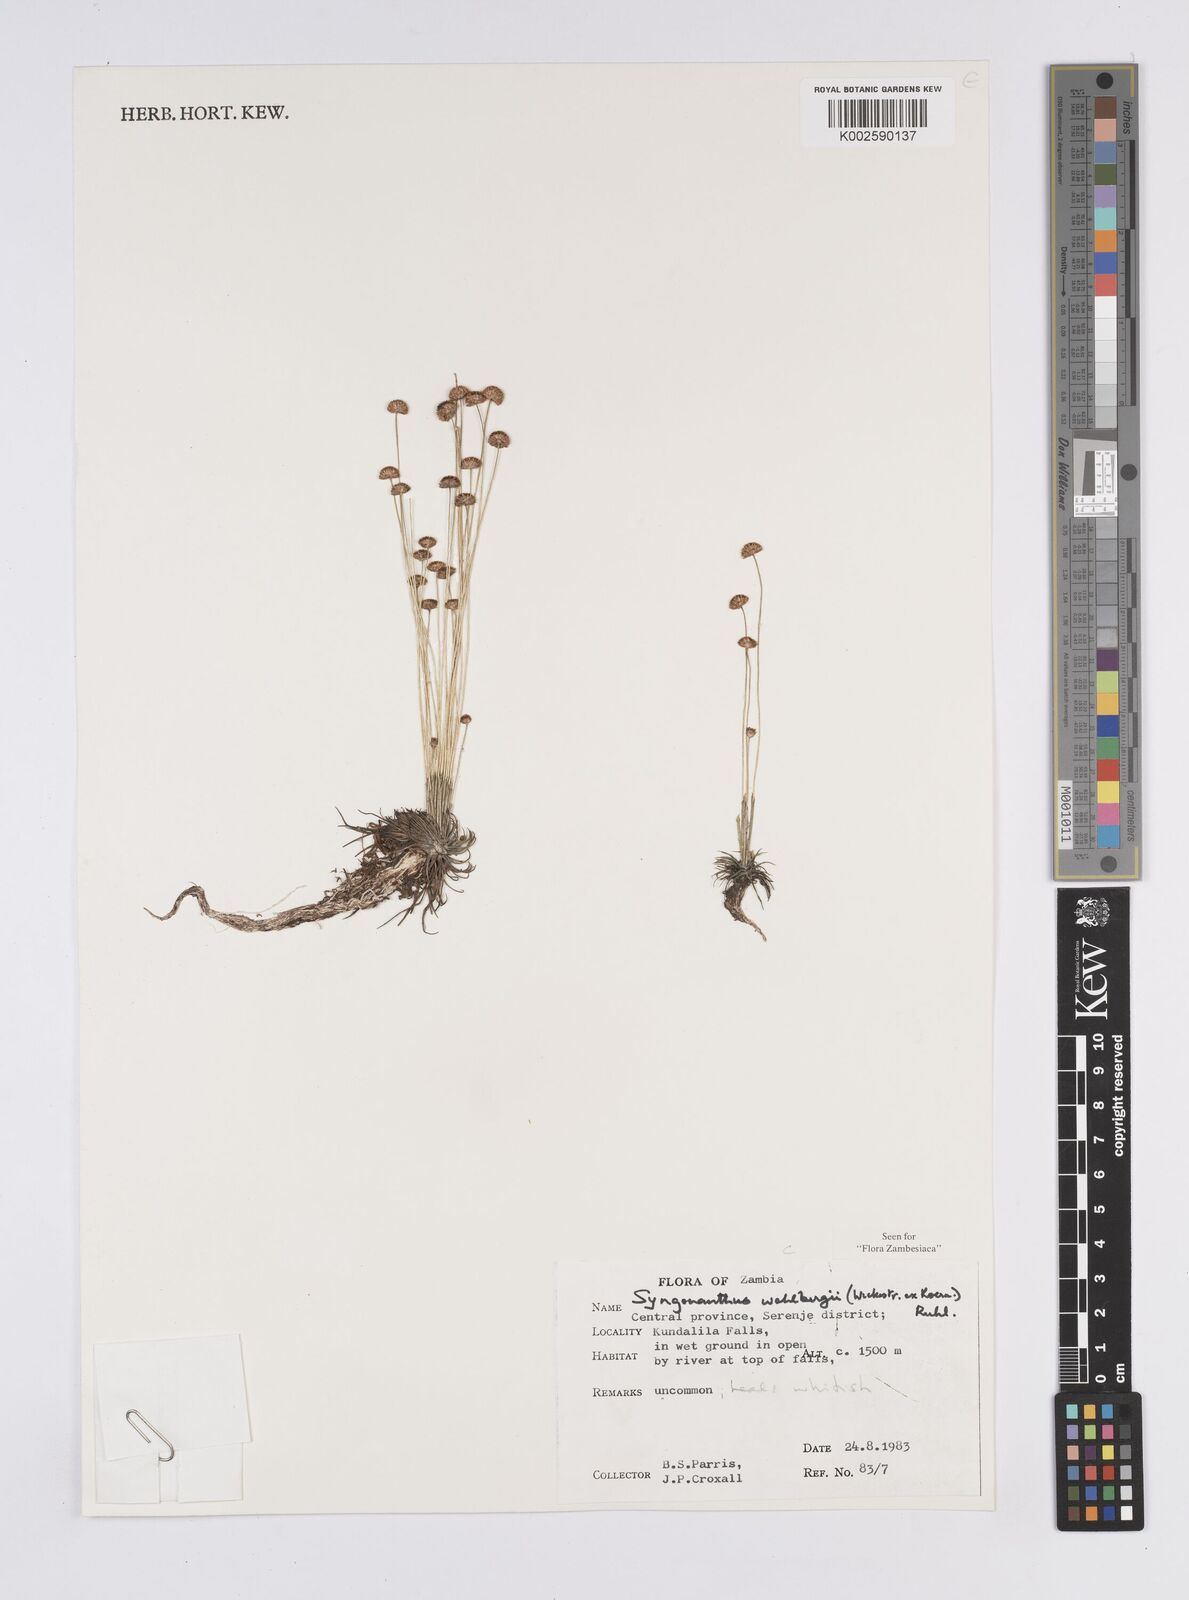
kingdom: Plantae
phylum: Tracheophyta
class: Liliopsida
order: Poales
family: Eriocaulaceae
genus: Syngonanthus
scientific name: Syngonanthus wahlbergii
